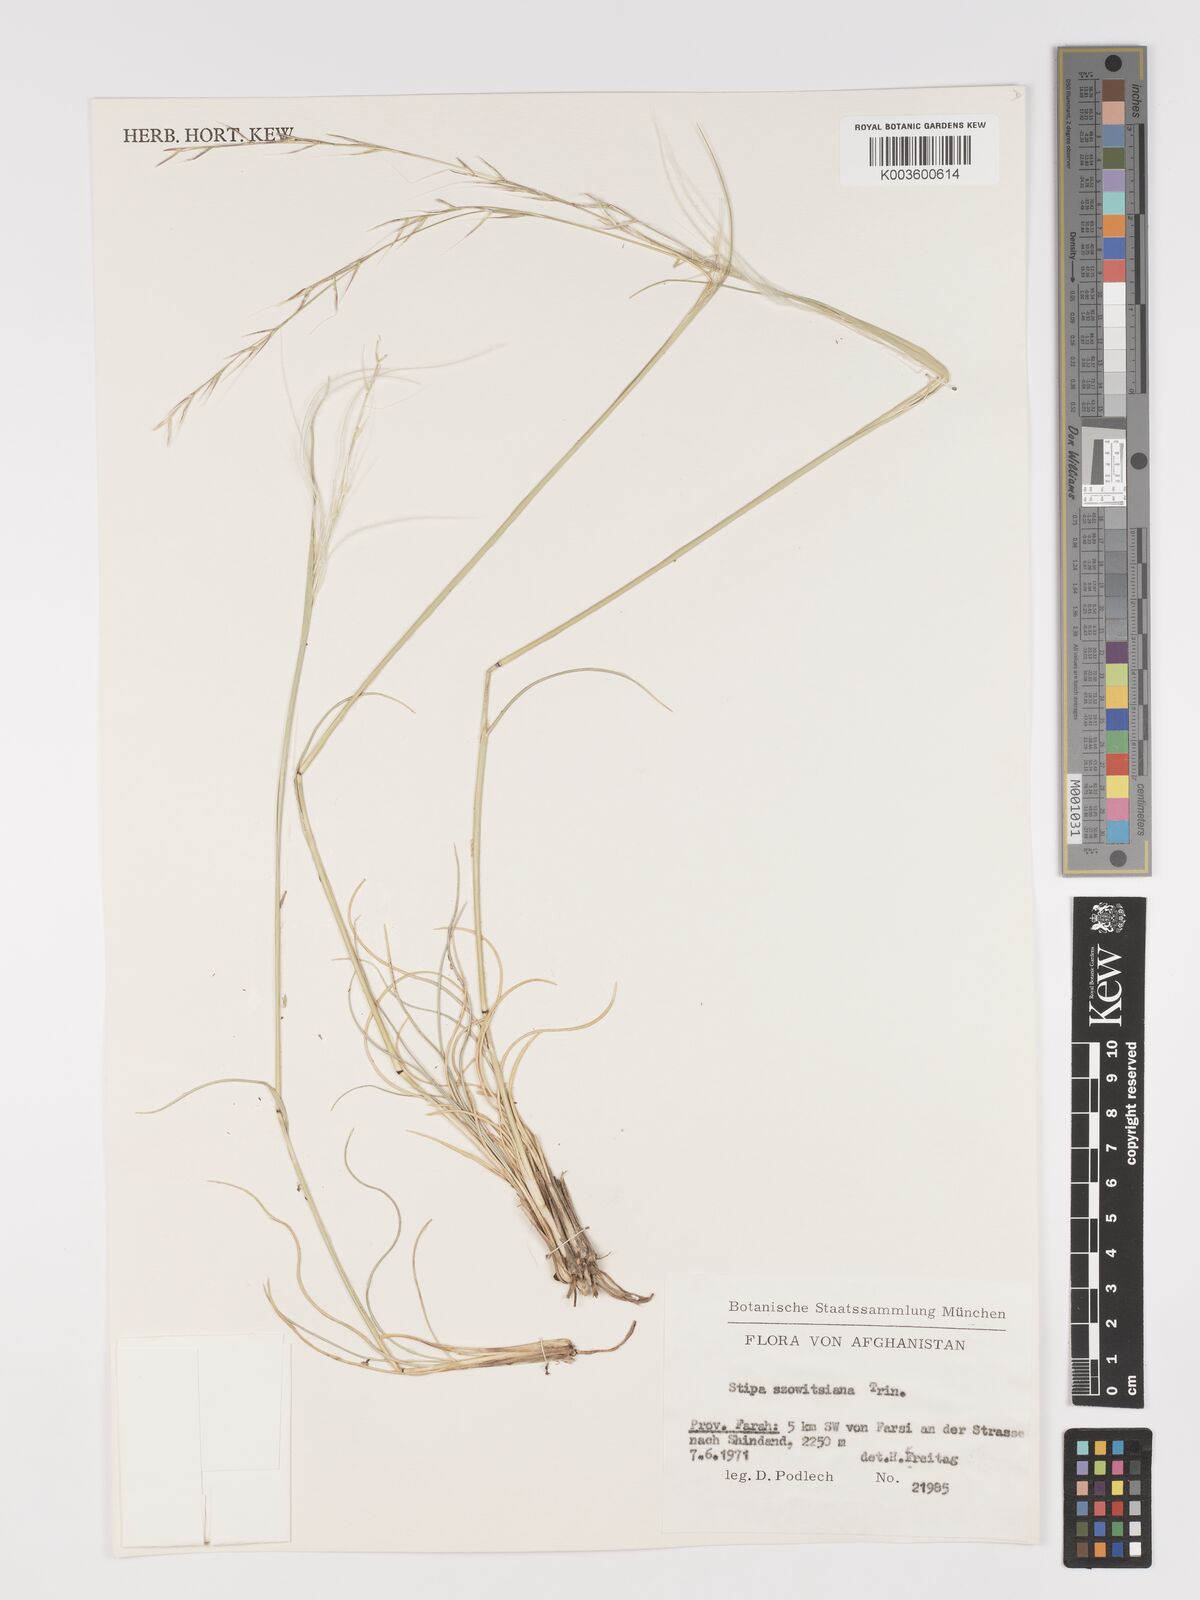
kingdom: Plantae
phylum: Tracheophyta
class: Liliopsida
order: Poales
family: Poaceae
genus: Stipa
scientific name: Stipa barbata
